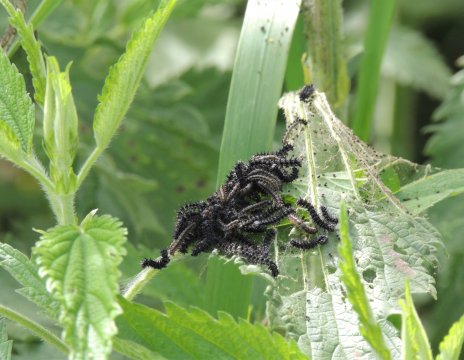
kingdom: Animalia
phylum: Arthropoda
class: Insecta
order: Lepidoptera
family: Nymphalidae
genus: Aglais
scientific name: Aglais milberti
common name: Milbert's Tortoiseshell
